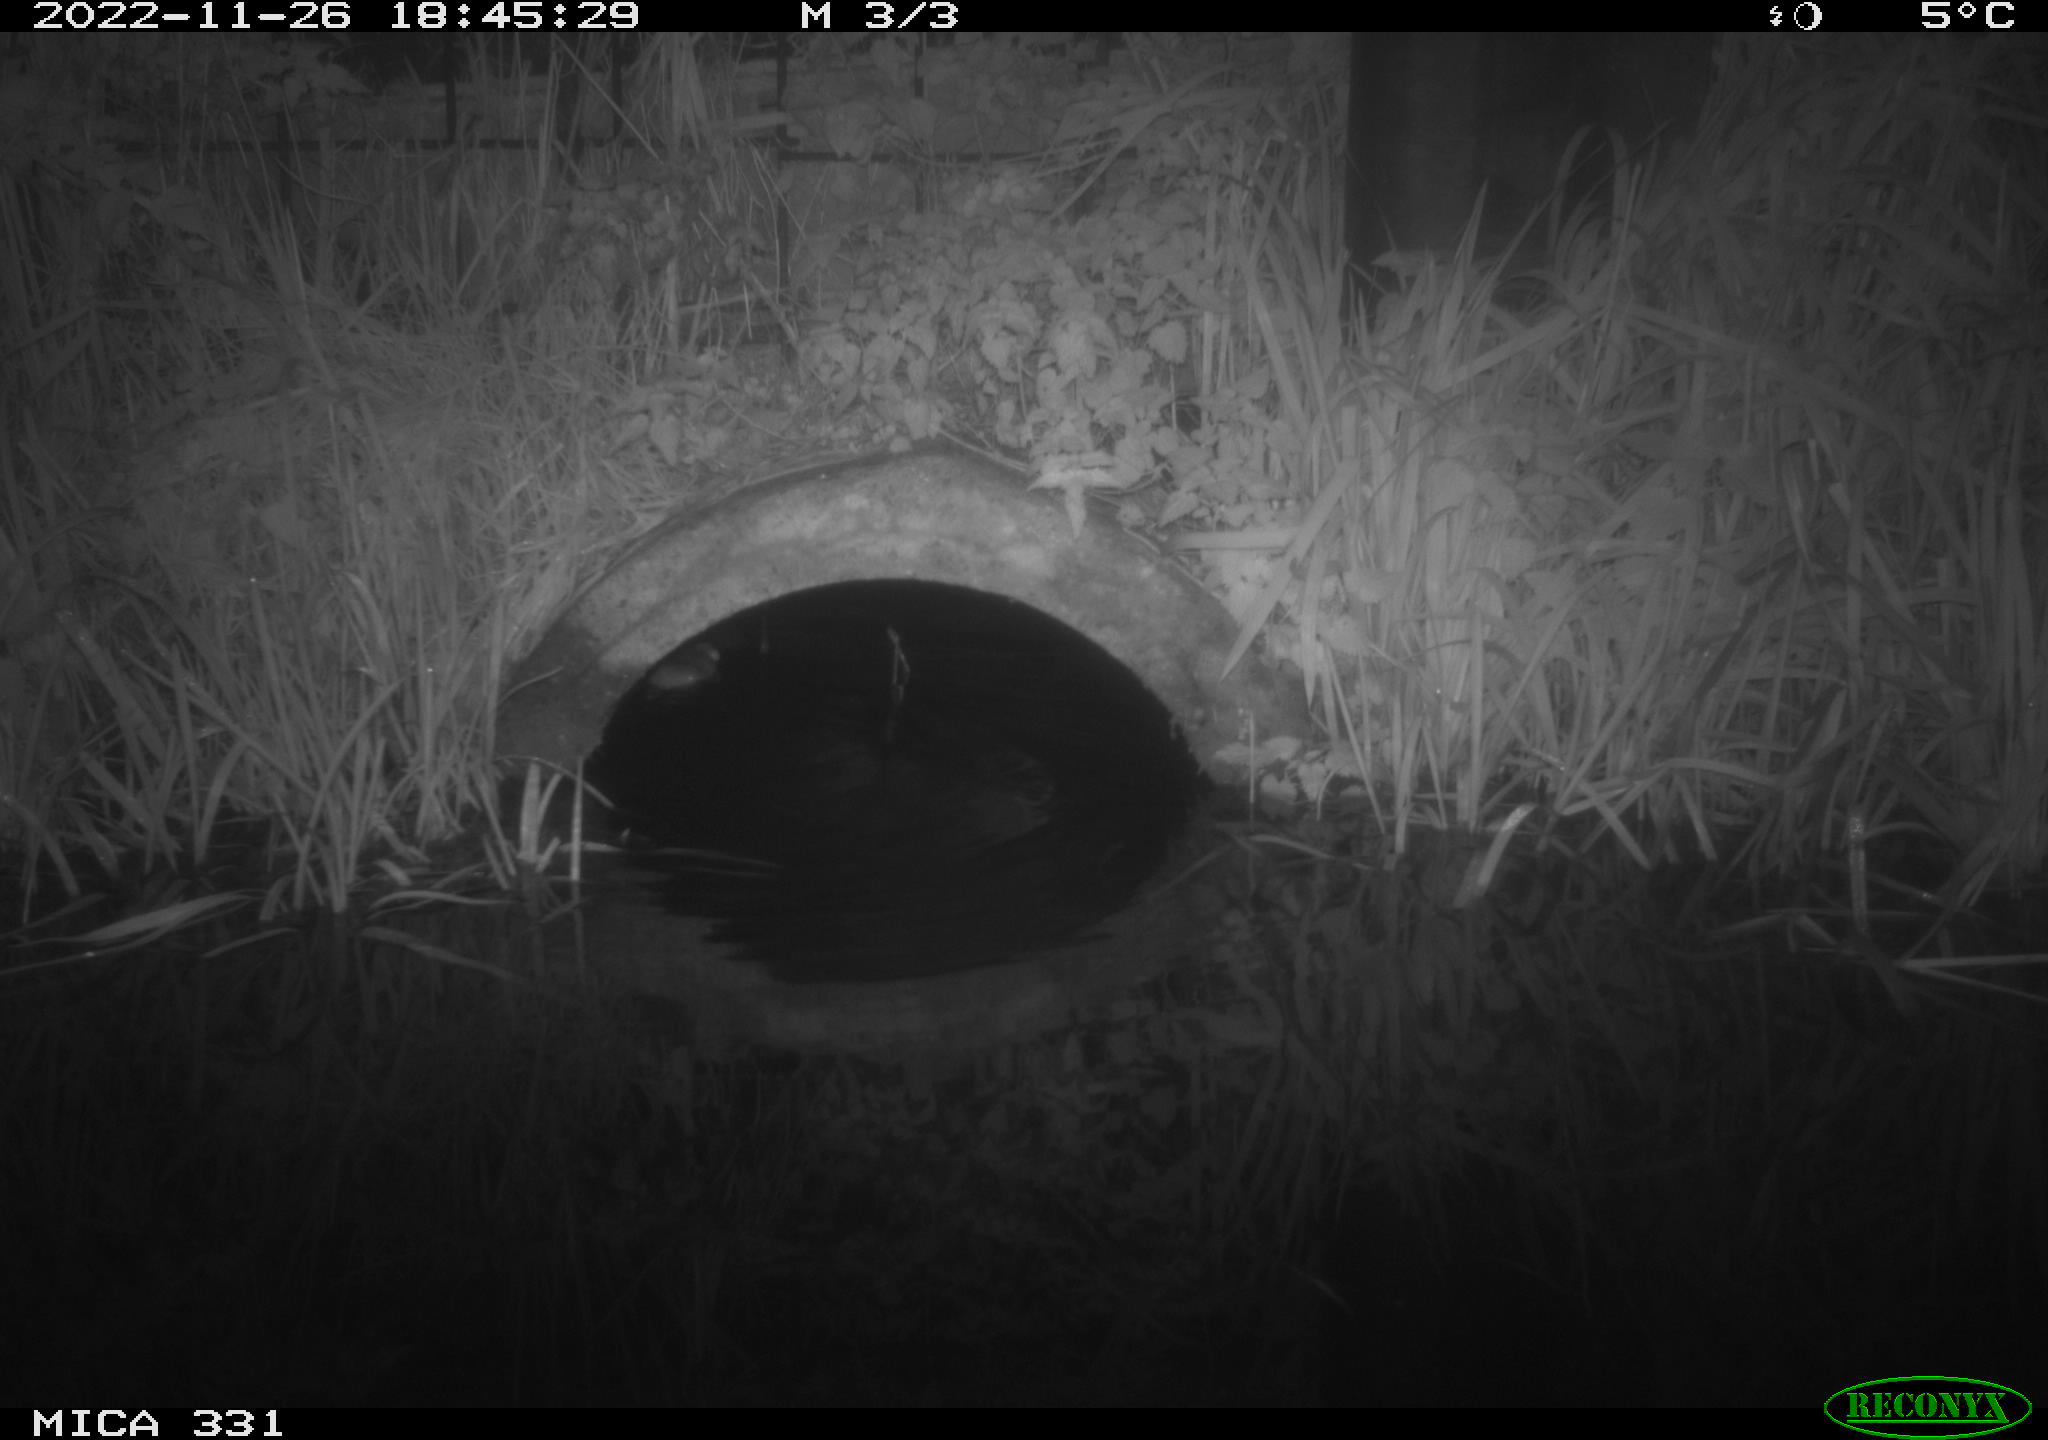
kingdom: Animalia
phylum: Chordata
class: Mammalia
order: Rodentia
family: Muridae
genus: Rattus
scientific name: Rattus norvegicus
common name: Brown rat
